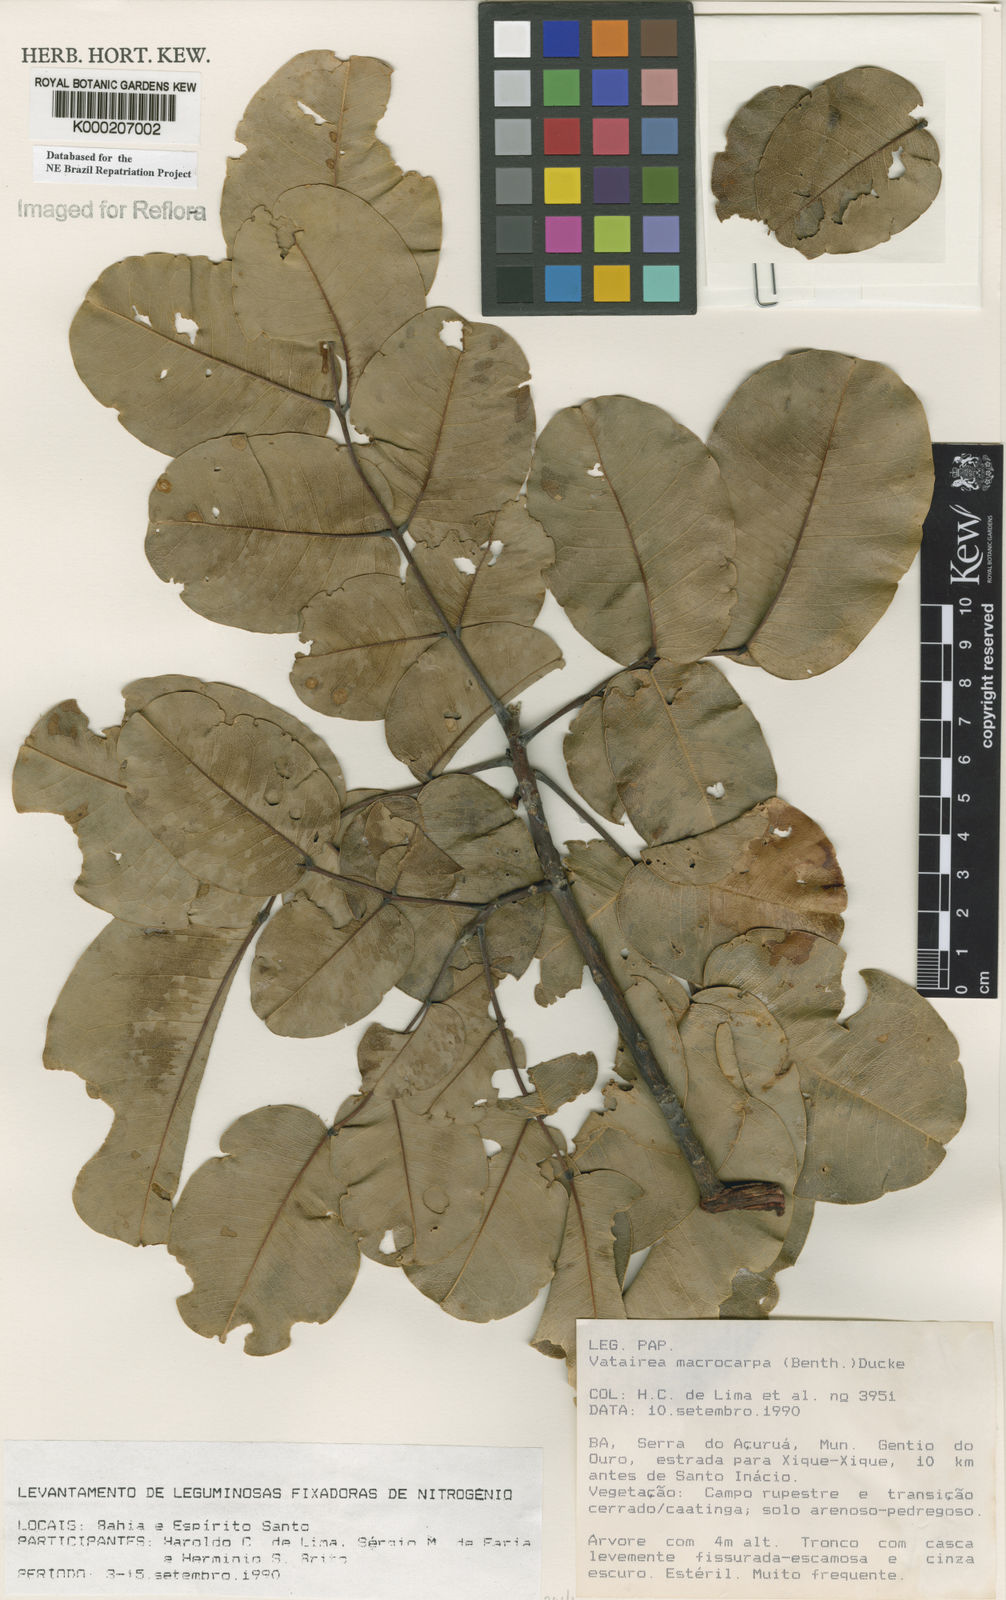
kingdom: Plantae
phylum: Tracheophyta
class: Magnoliopsida
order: Fabales
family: Fabaceae
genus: Vatairea
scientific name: Vatairea macrocarpa
